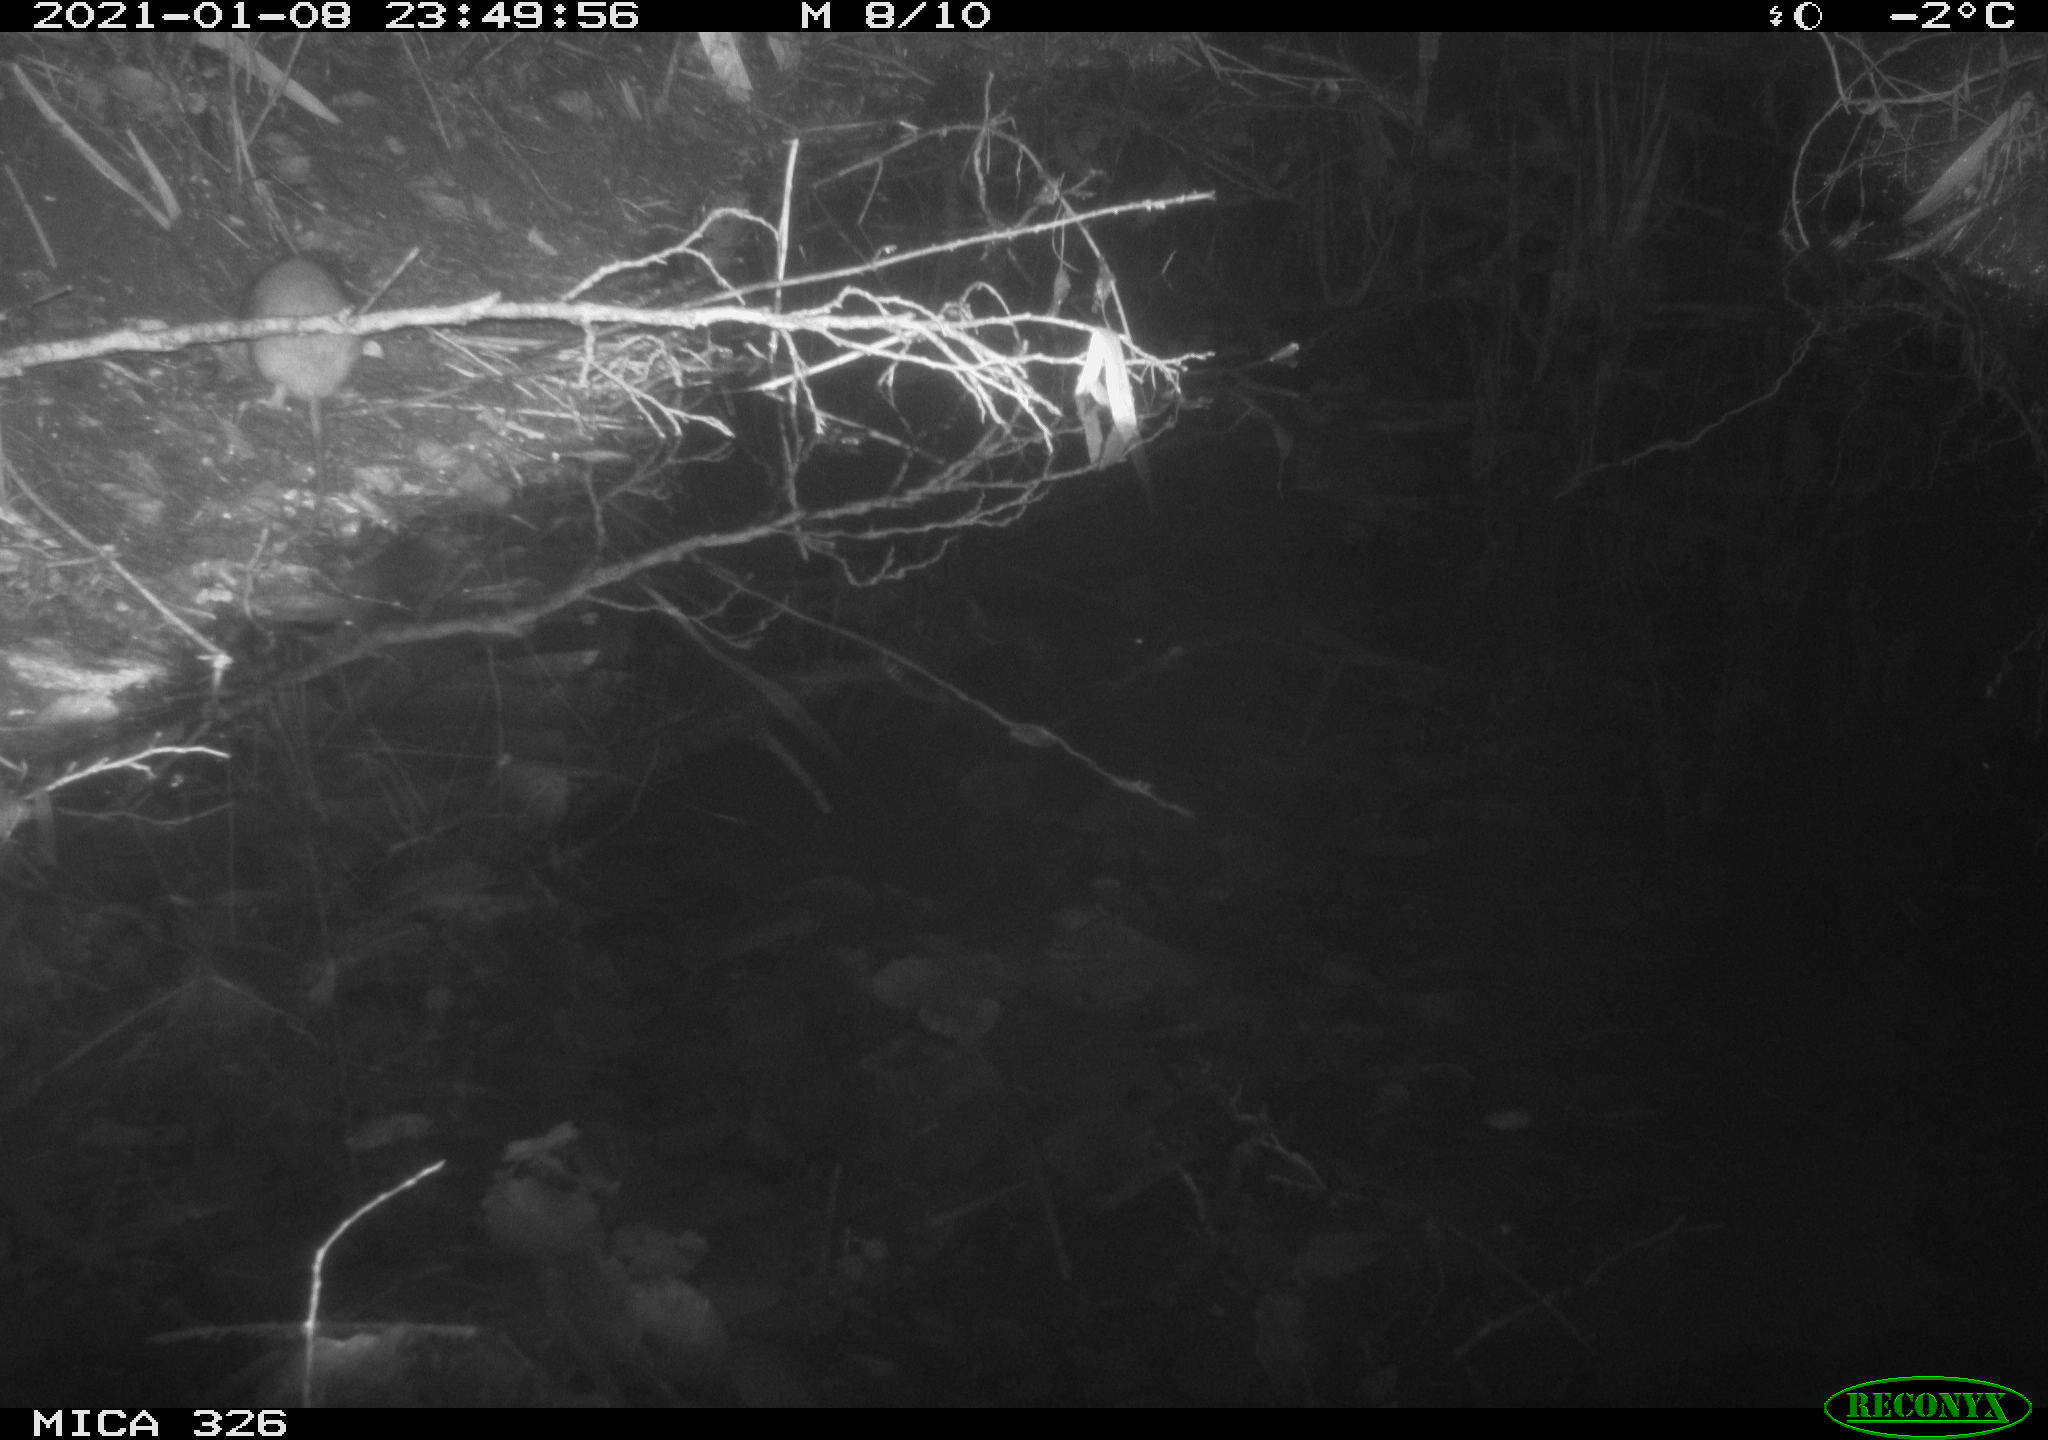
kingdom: Animalia
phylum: Chordata
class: Mammalia
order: Rodentia
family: Muridae
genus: Rattus
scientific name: Rattus norvegicus
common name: Brown rat
